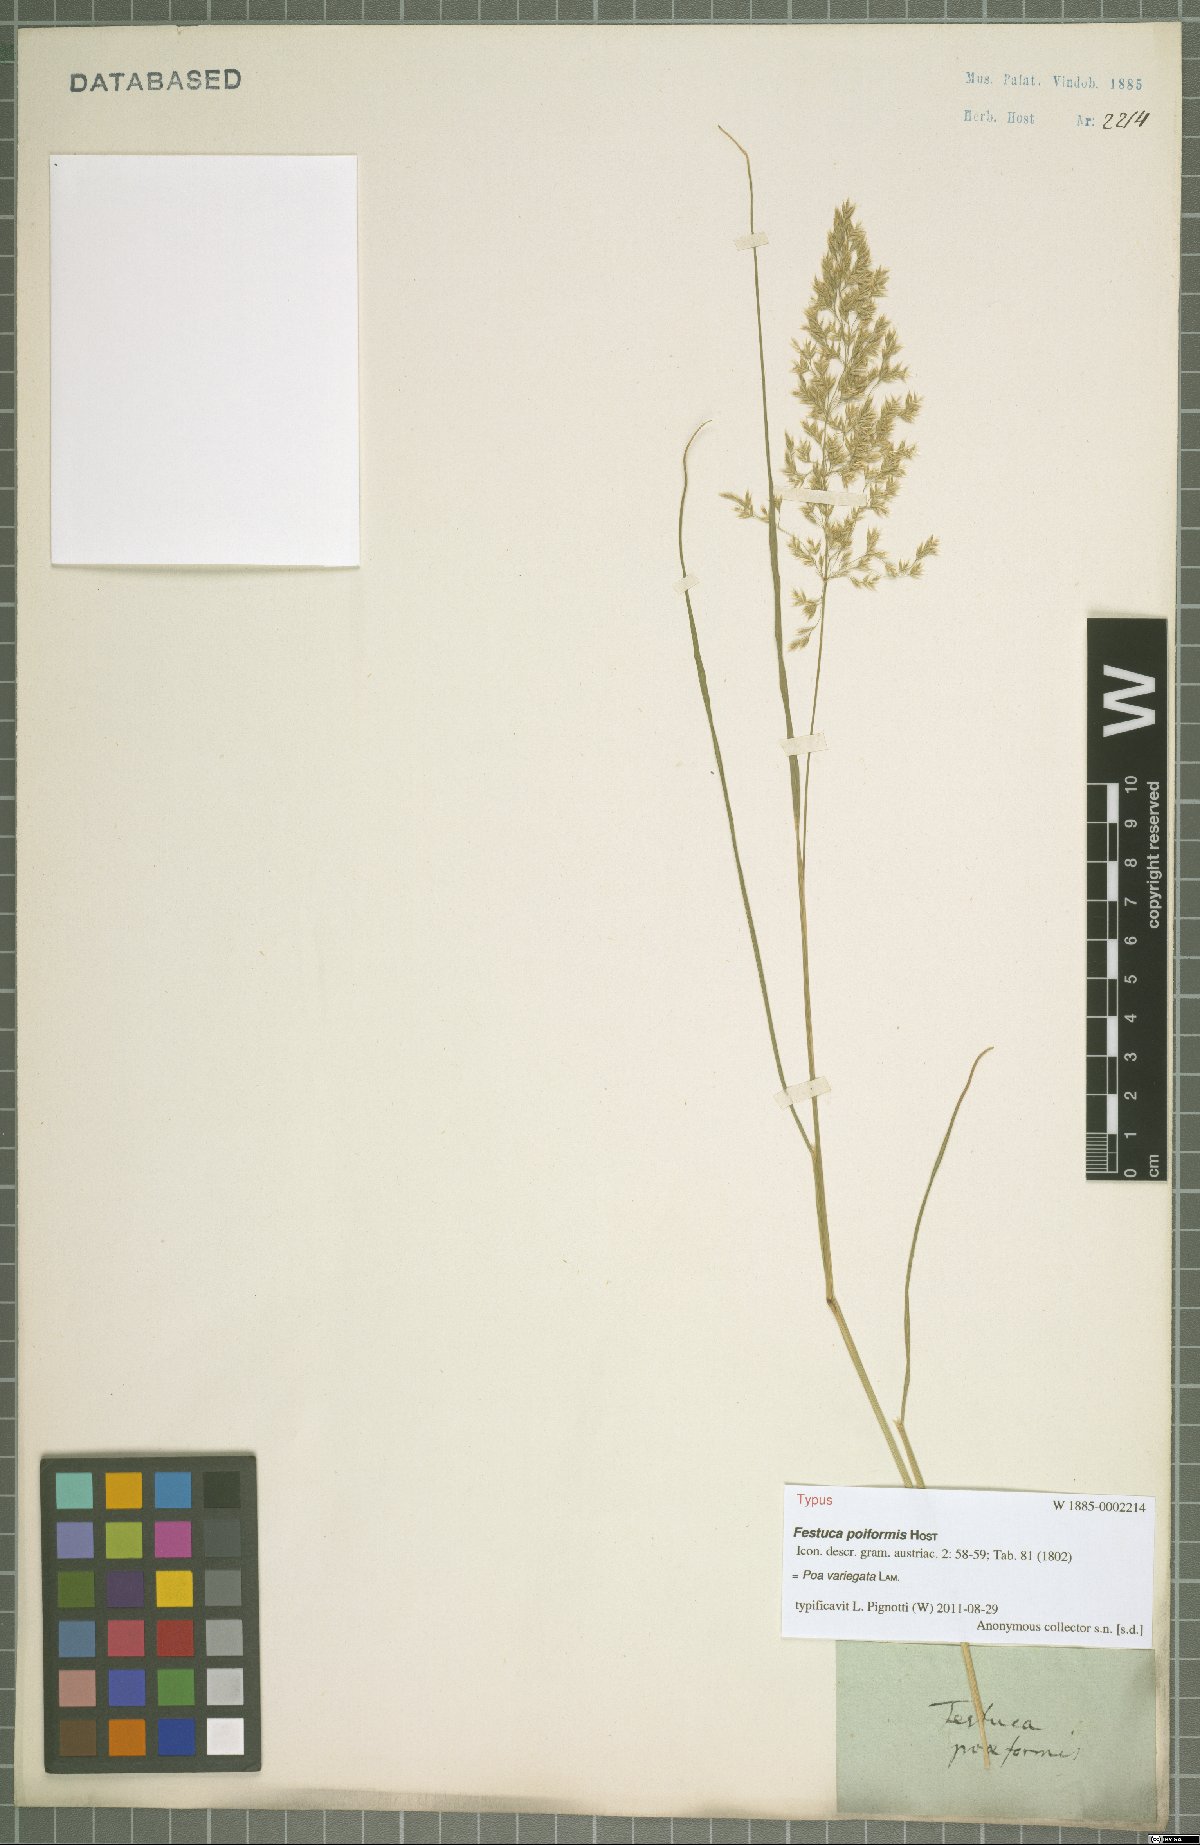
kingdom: Plantae
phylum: Tracheophyta
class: Liliopsida
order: Poales
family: Poaceae
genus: Bellardiochloa
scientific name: Bellardiochloa variegata
